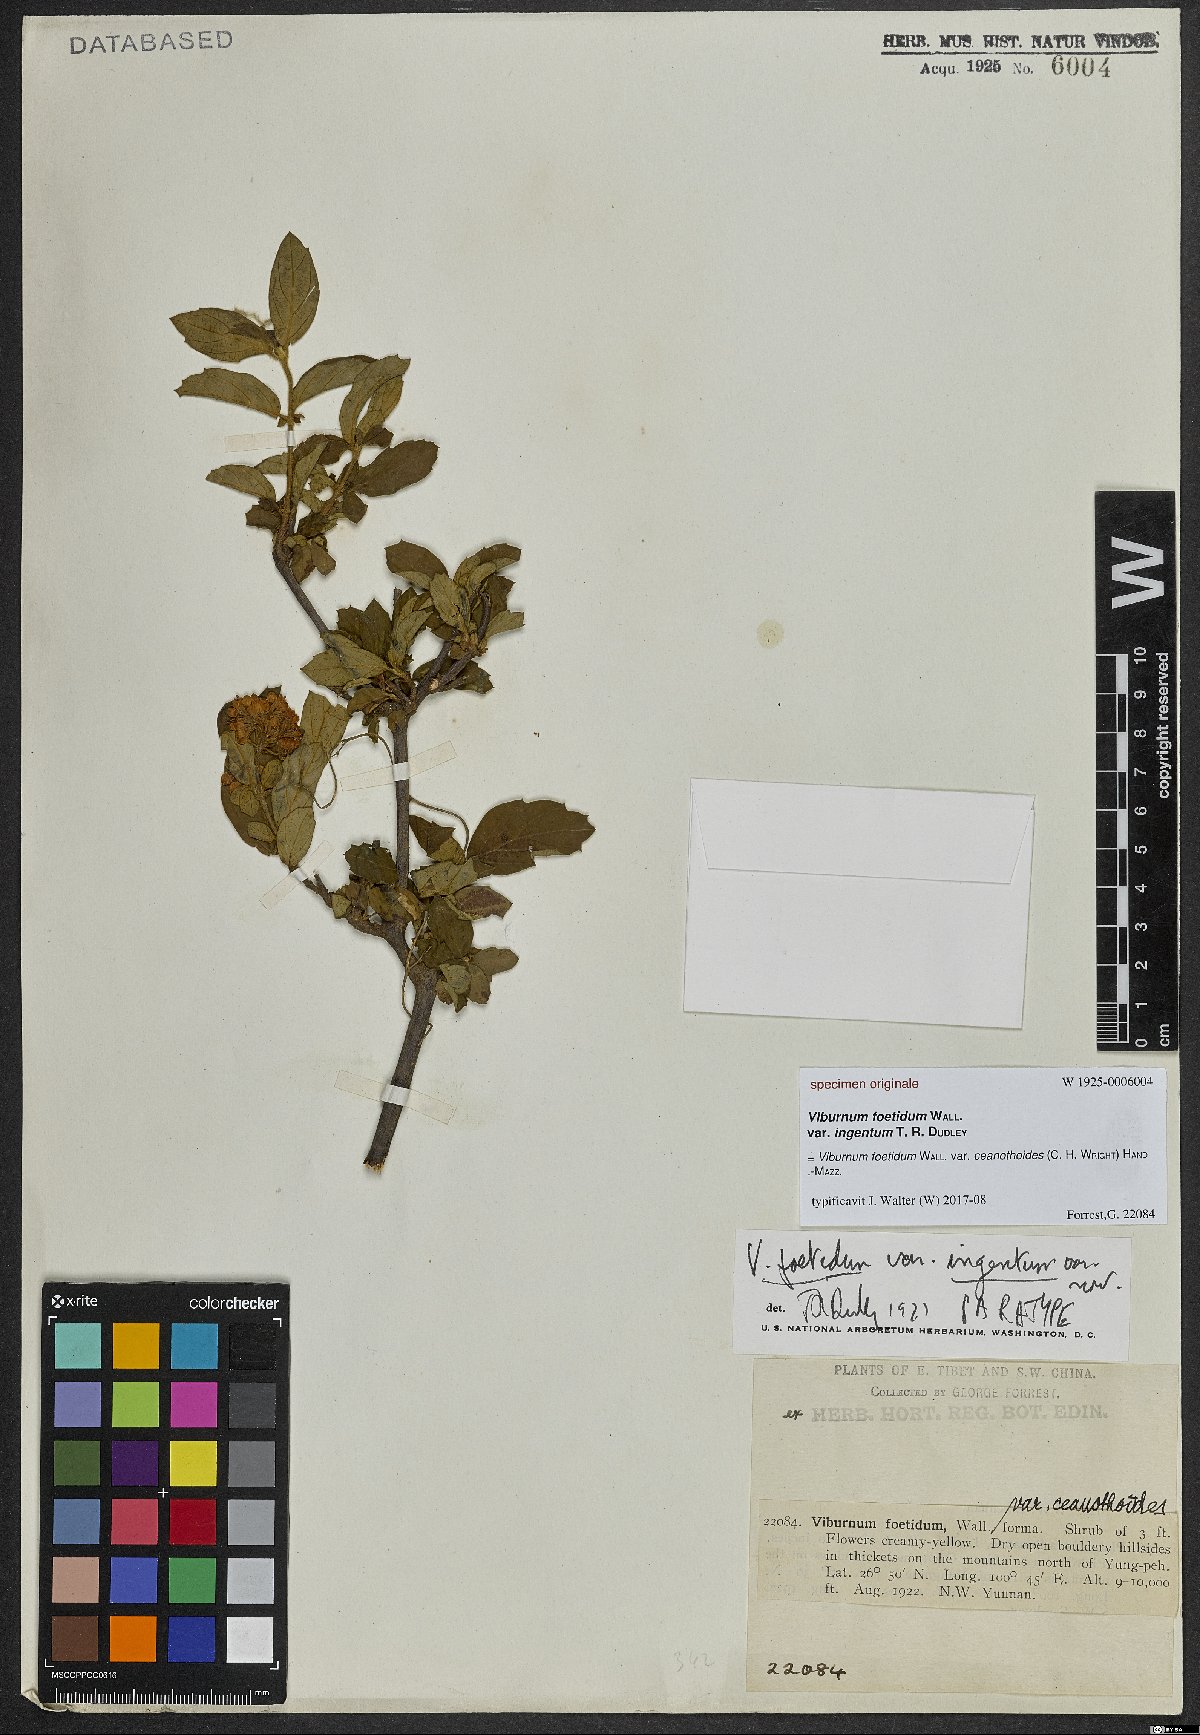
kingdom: Plantae
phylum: Tracheophyta
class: Magnoliopsida
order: Dipsacales
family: Viburnaceae
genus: Viburnum
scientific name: Viburnum foetidum
